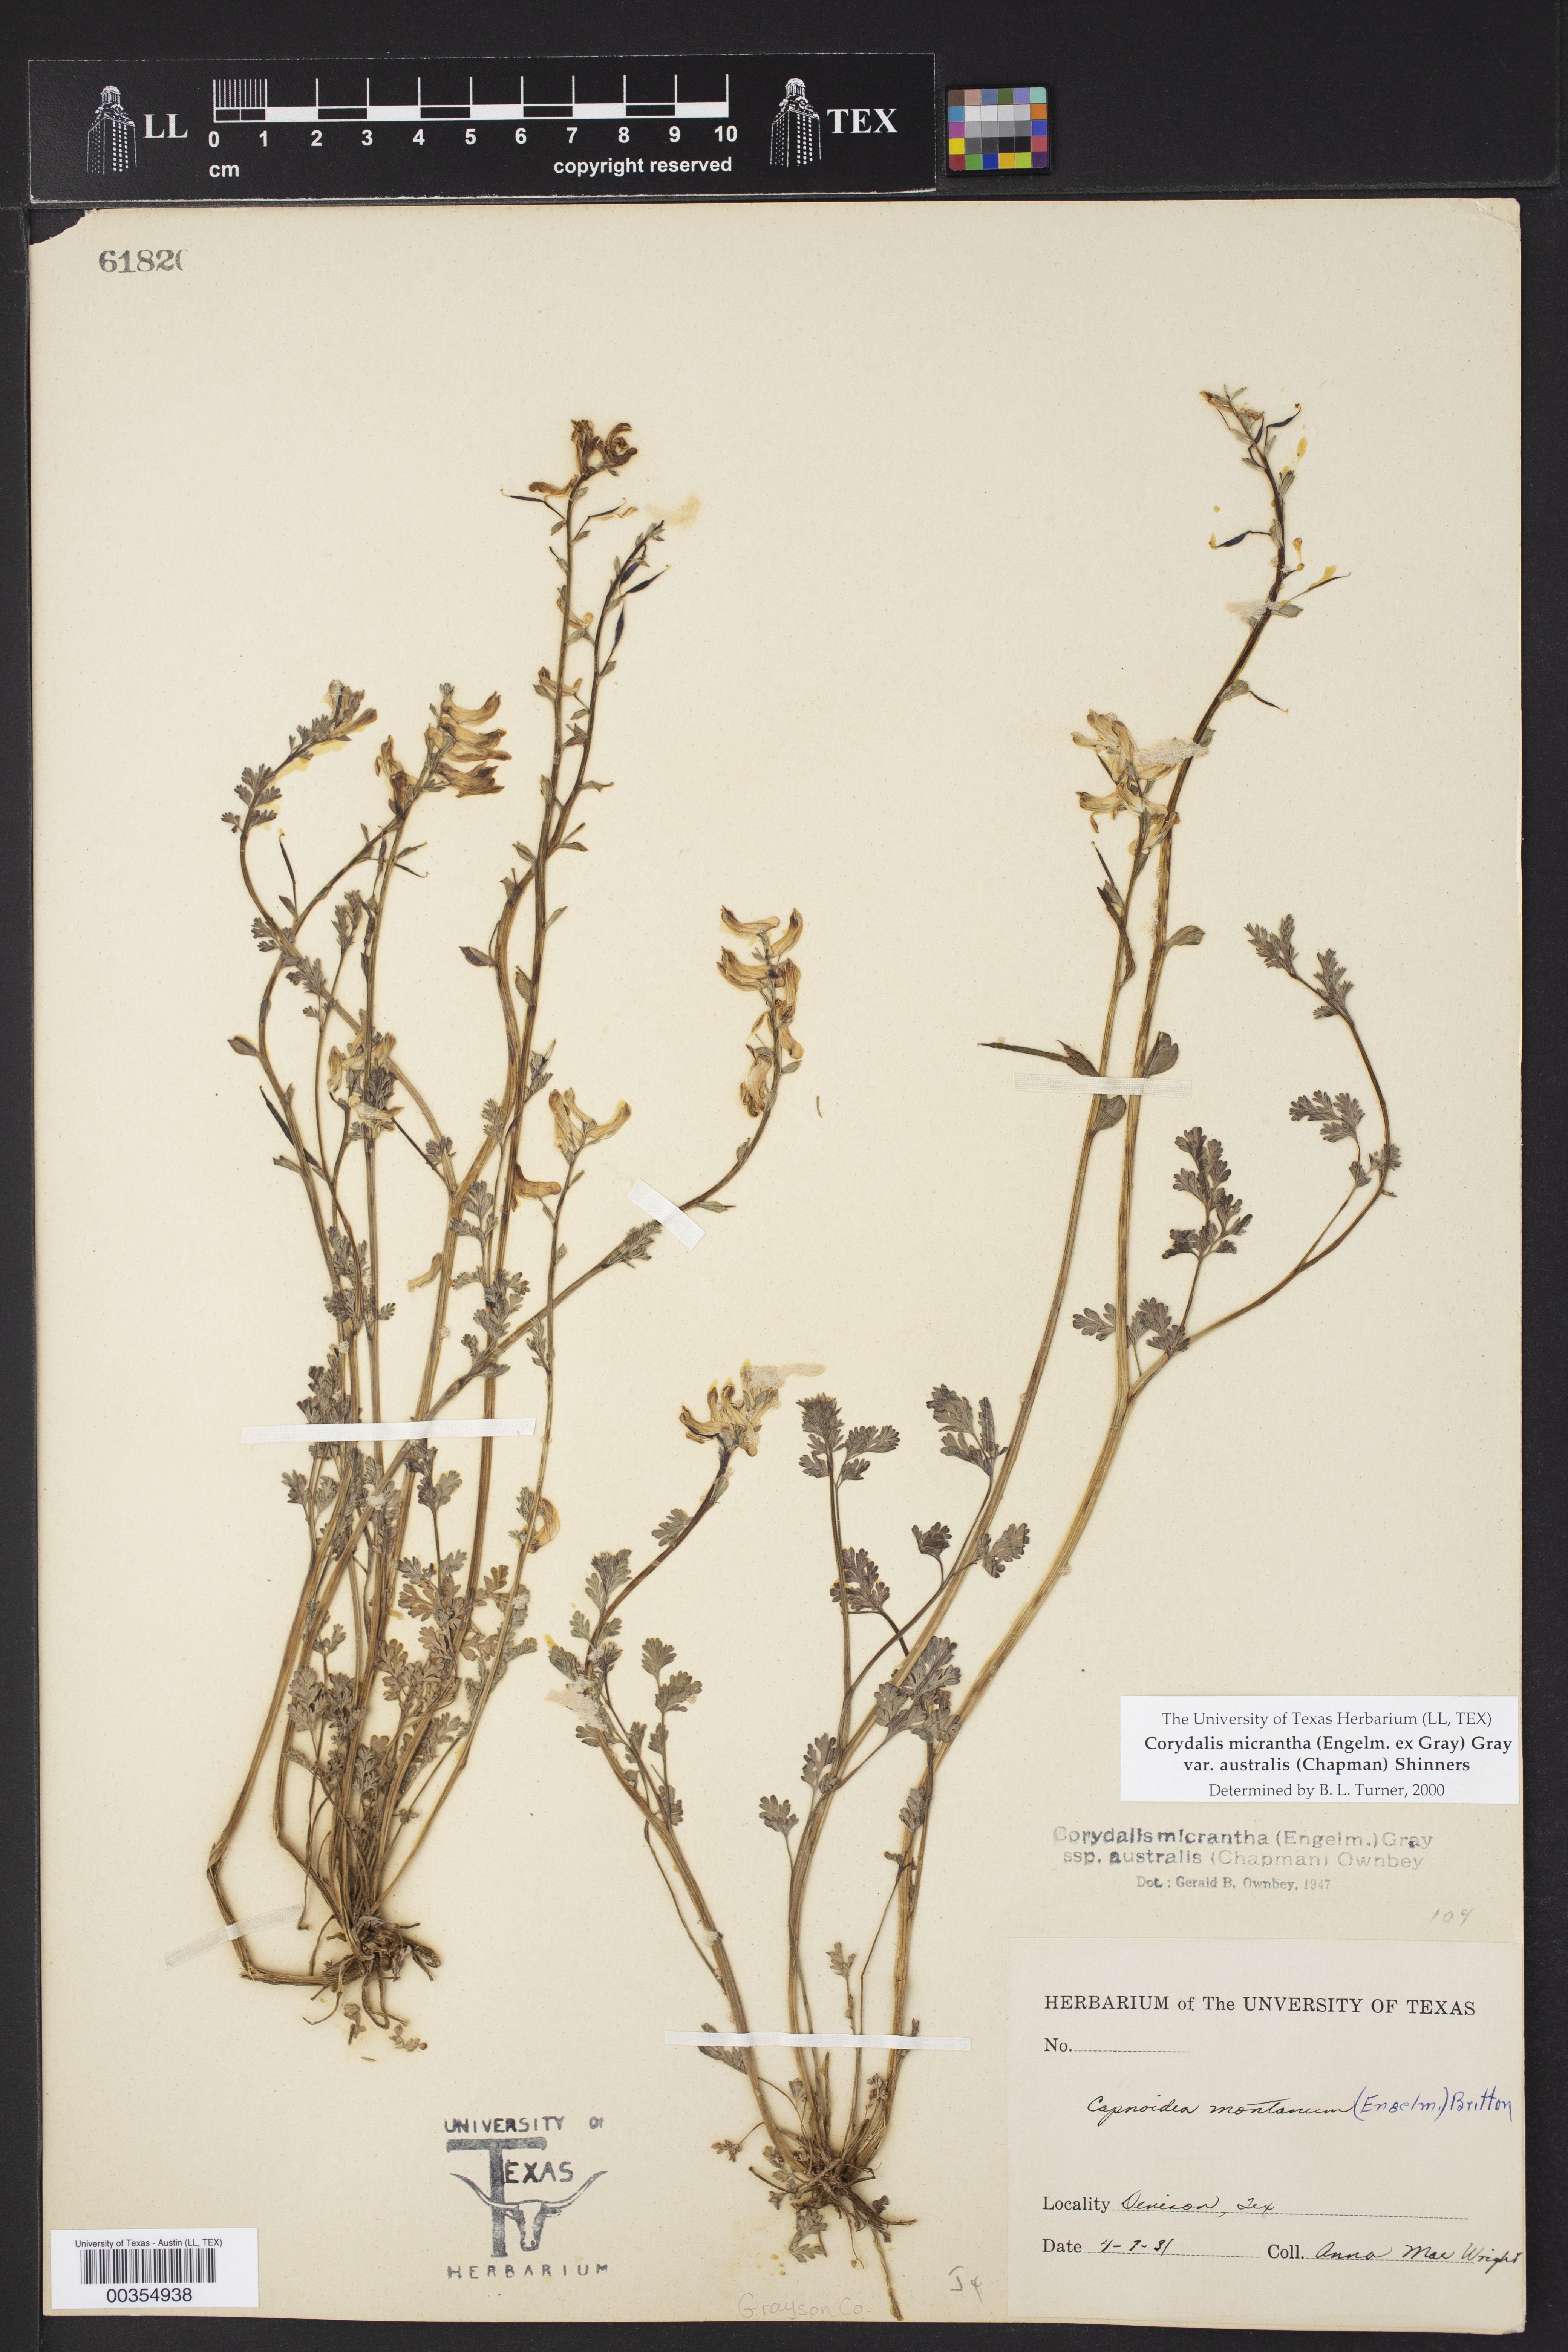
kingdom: Plantae
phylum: Tracheophyta
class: Magnoliopsida
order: Ranunculales
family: Papaveraceae
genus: Corydalis
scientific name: Corydalis micrantha
